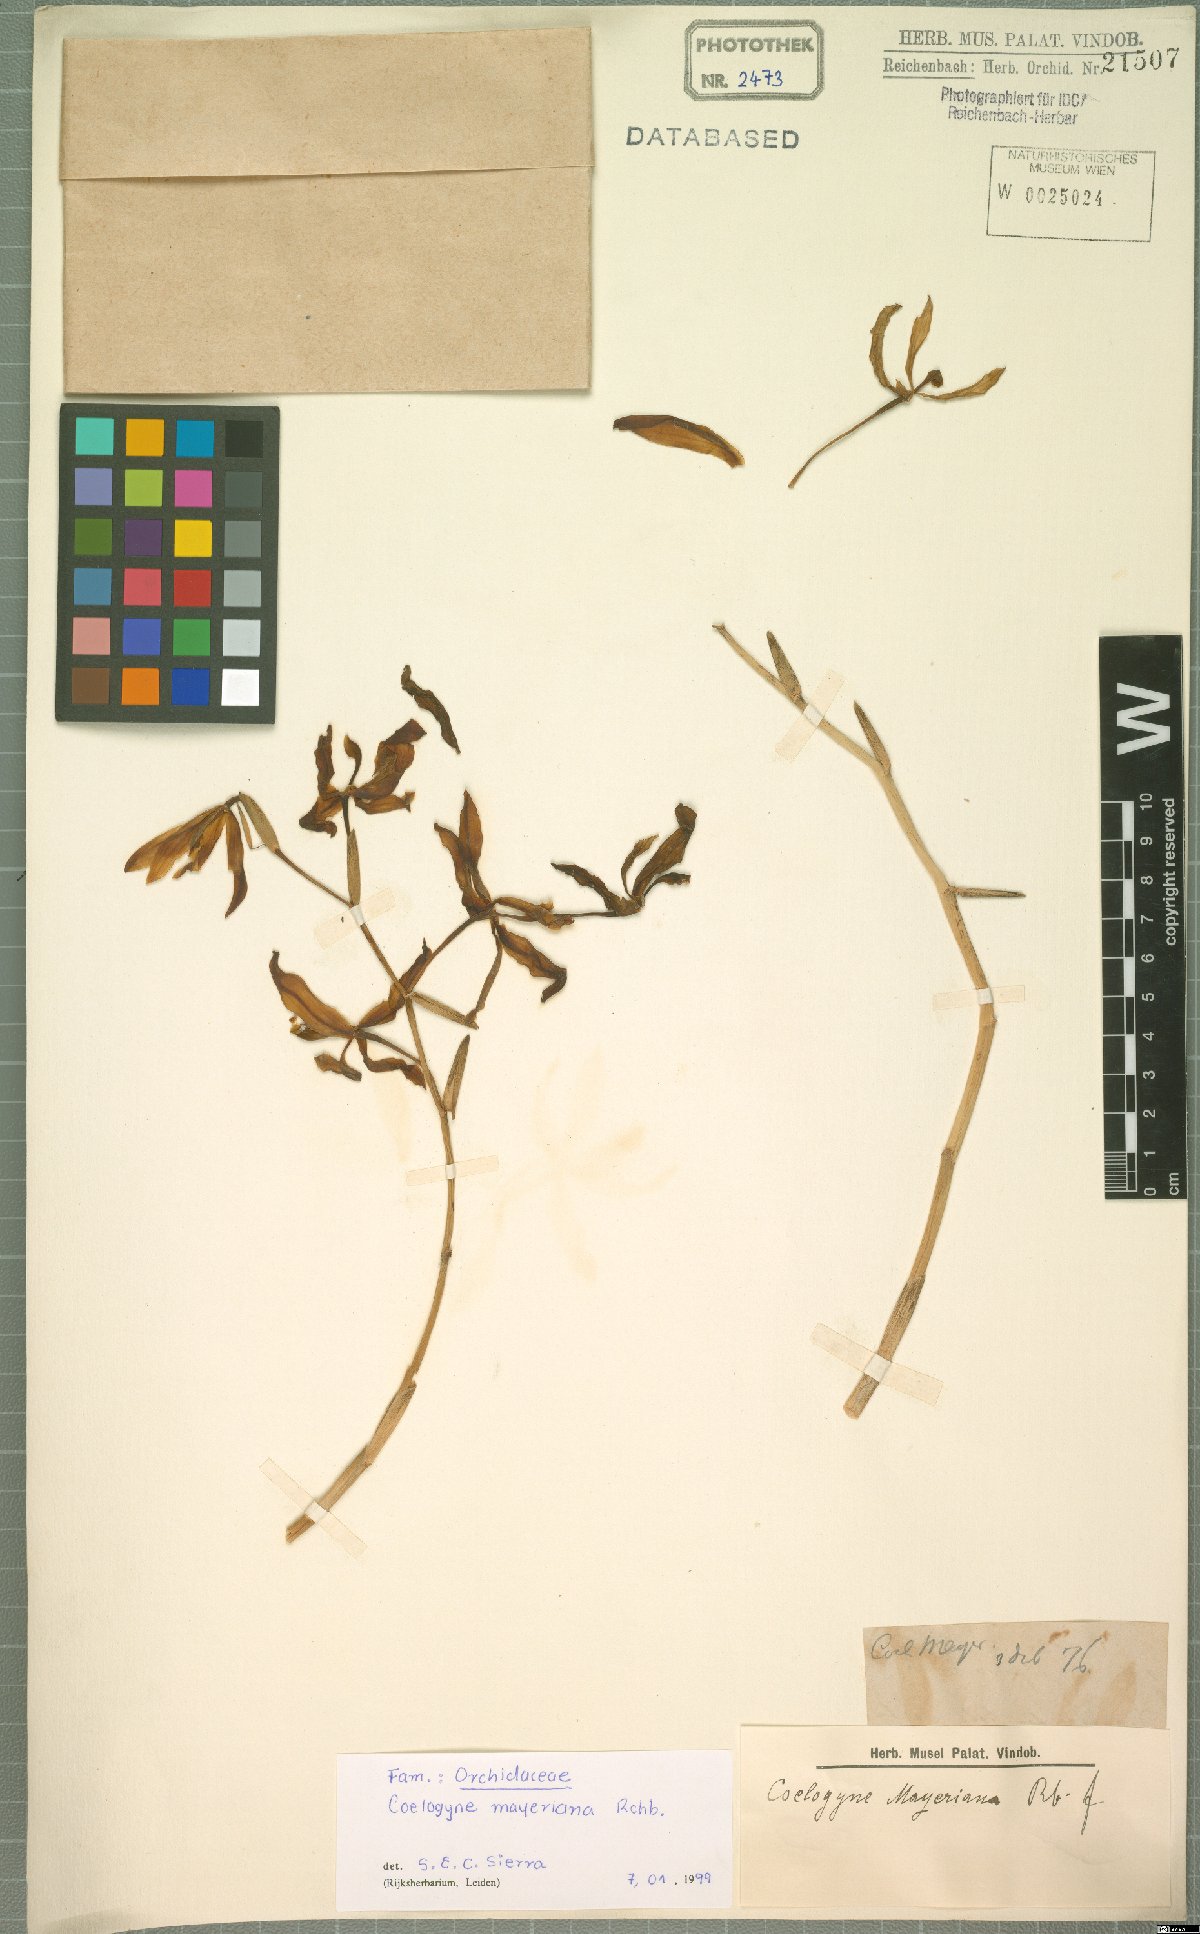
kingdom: Plantae
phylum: Tracheophyta
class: Liliopsida
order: Asparagales
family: Orchidaceae
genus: Coelogyne
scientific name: Coelogyne mayeriana
